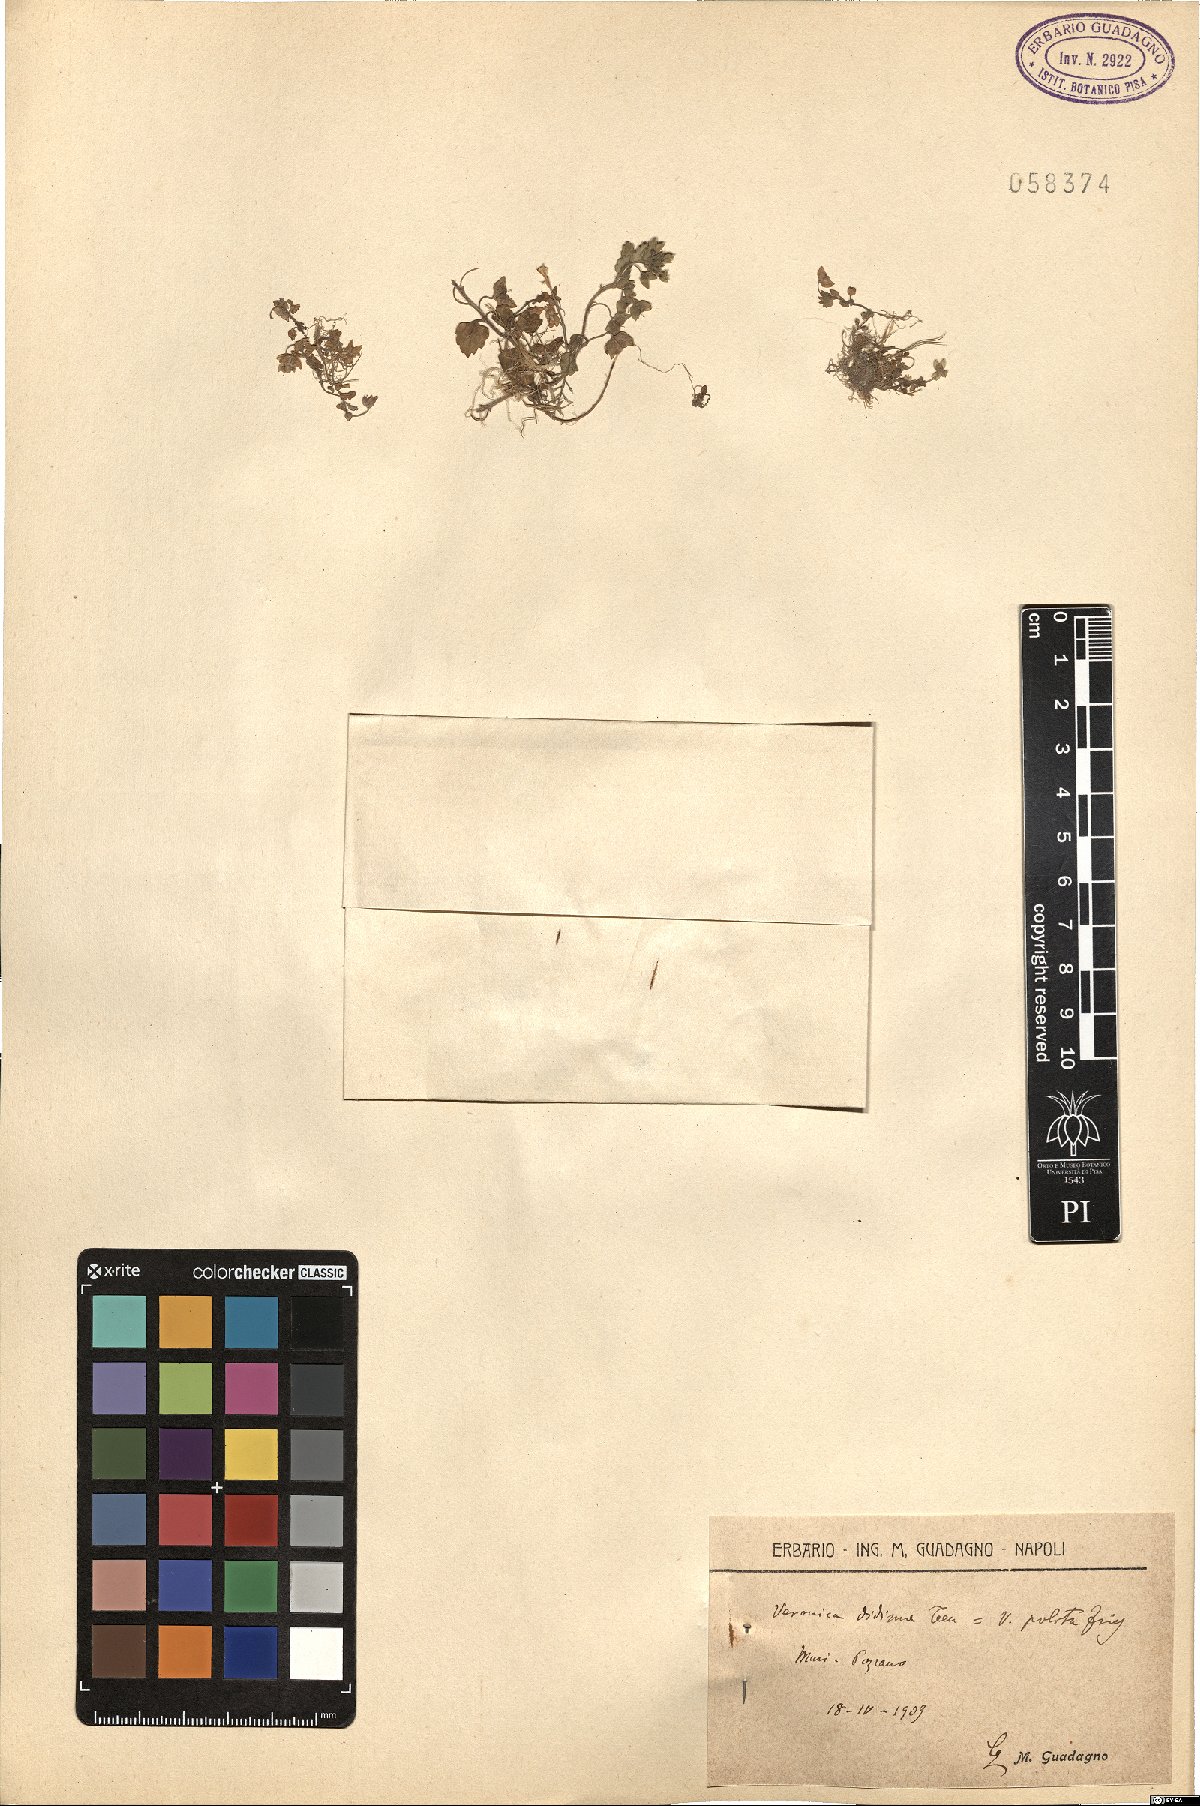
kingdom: Plantae
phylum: Tracheophyta
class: Magnoliopsida
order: Lamiales
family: Plantaginaceae
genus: Veronica
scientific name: Veronica polita
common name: Grey field-speedwell
